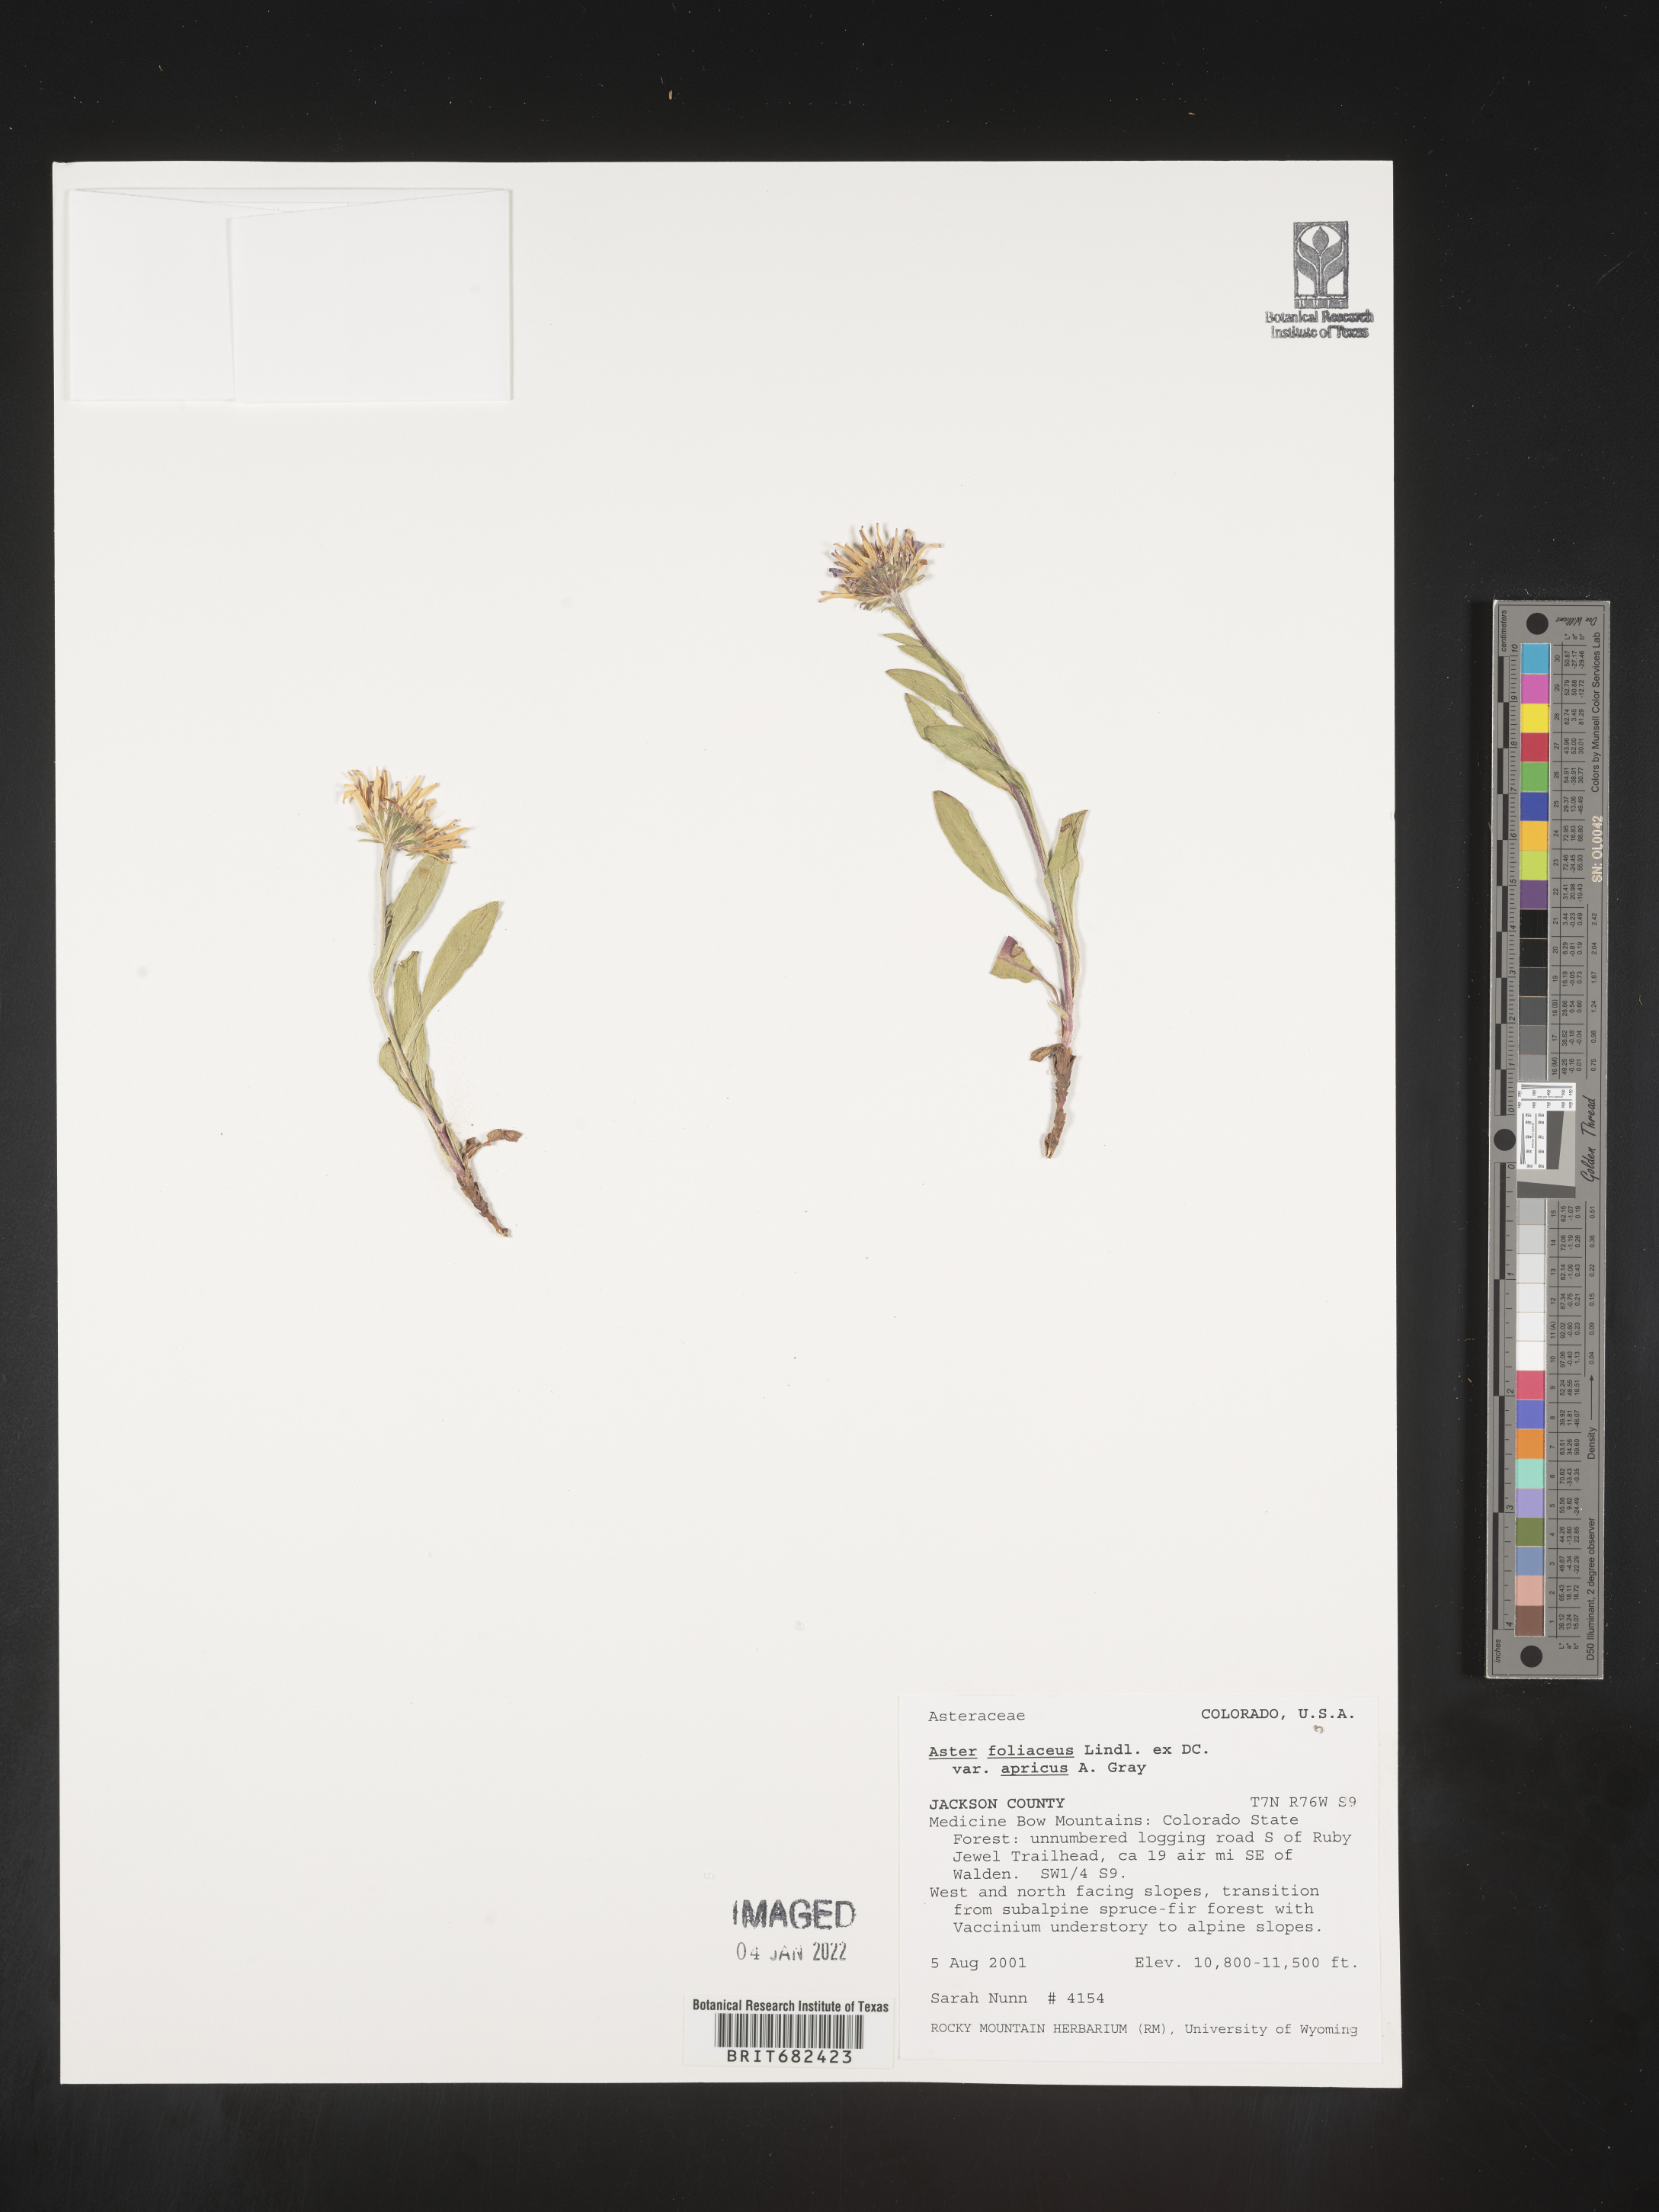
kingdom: Plantae
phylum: Tracheophyta
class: Magnoliopsida
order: Asterales
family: Asteraceae
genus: Aster
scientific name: Aster
